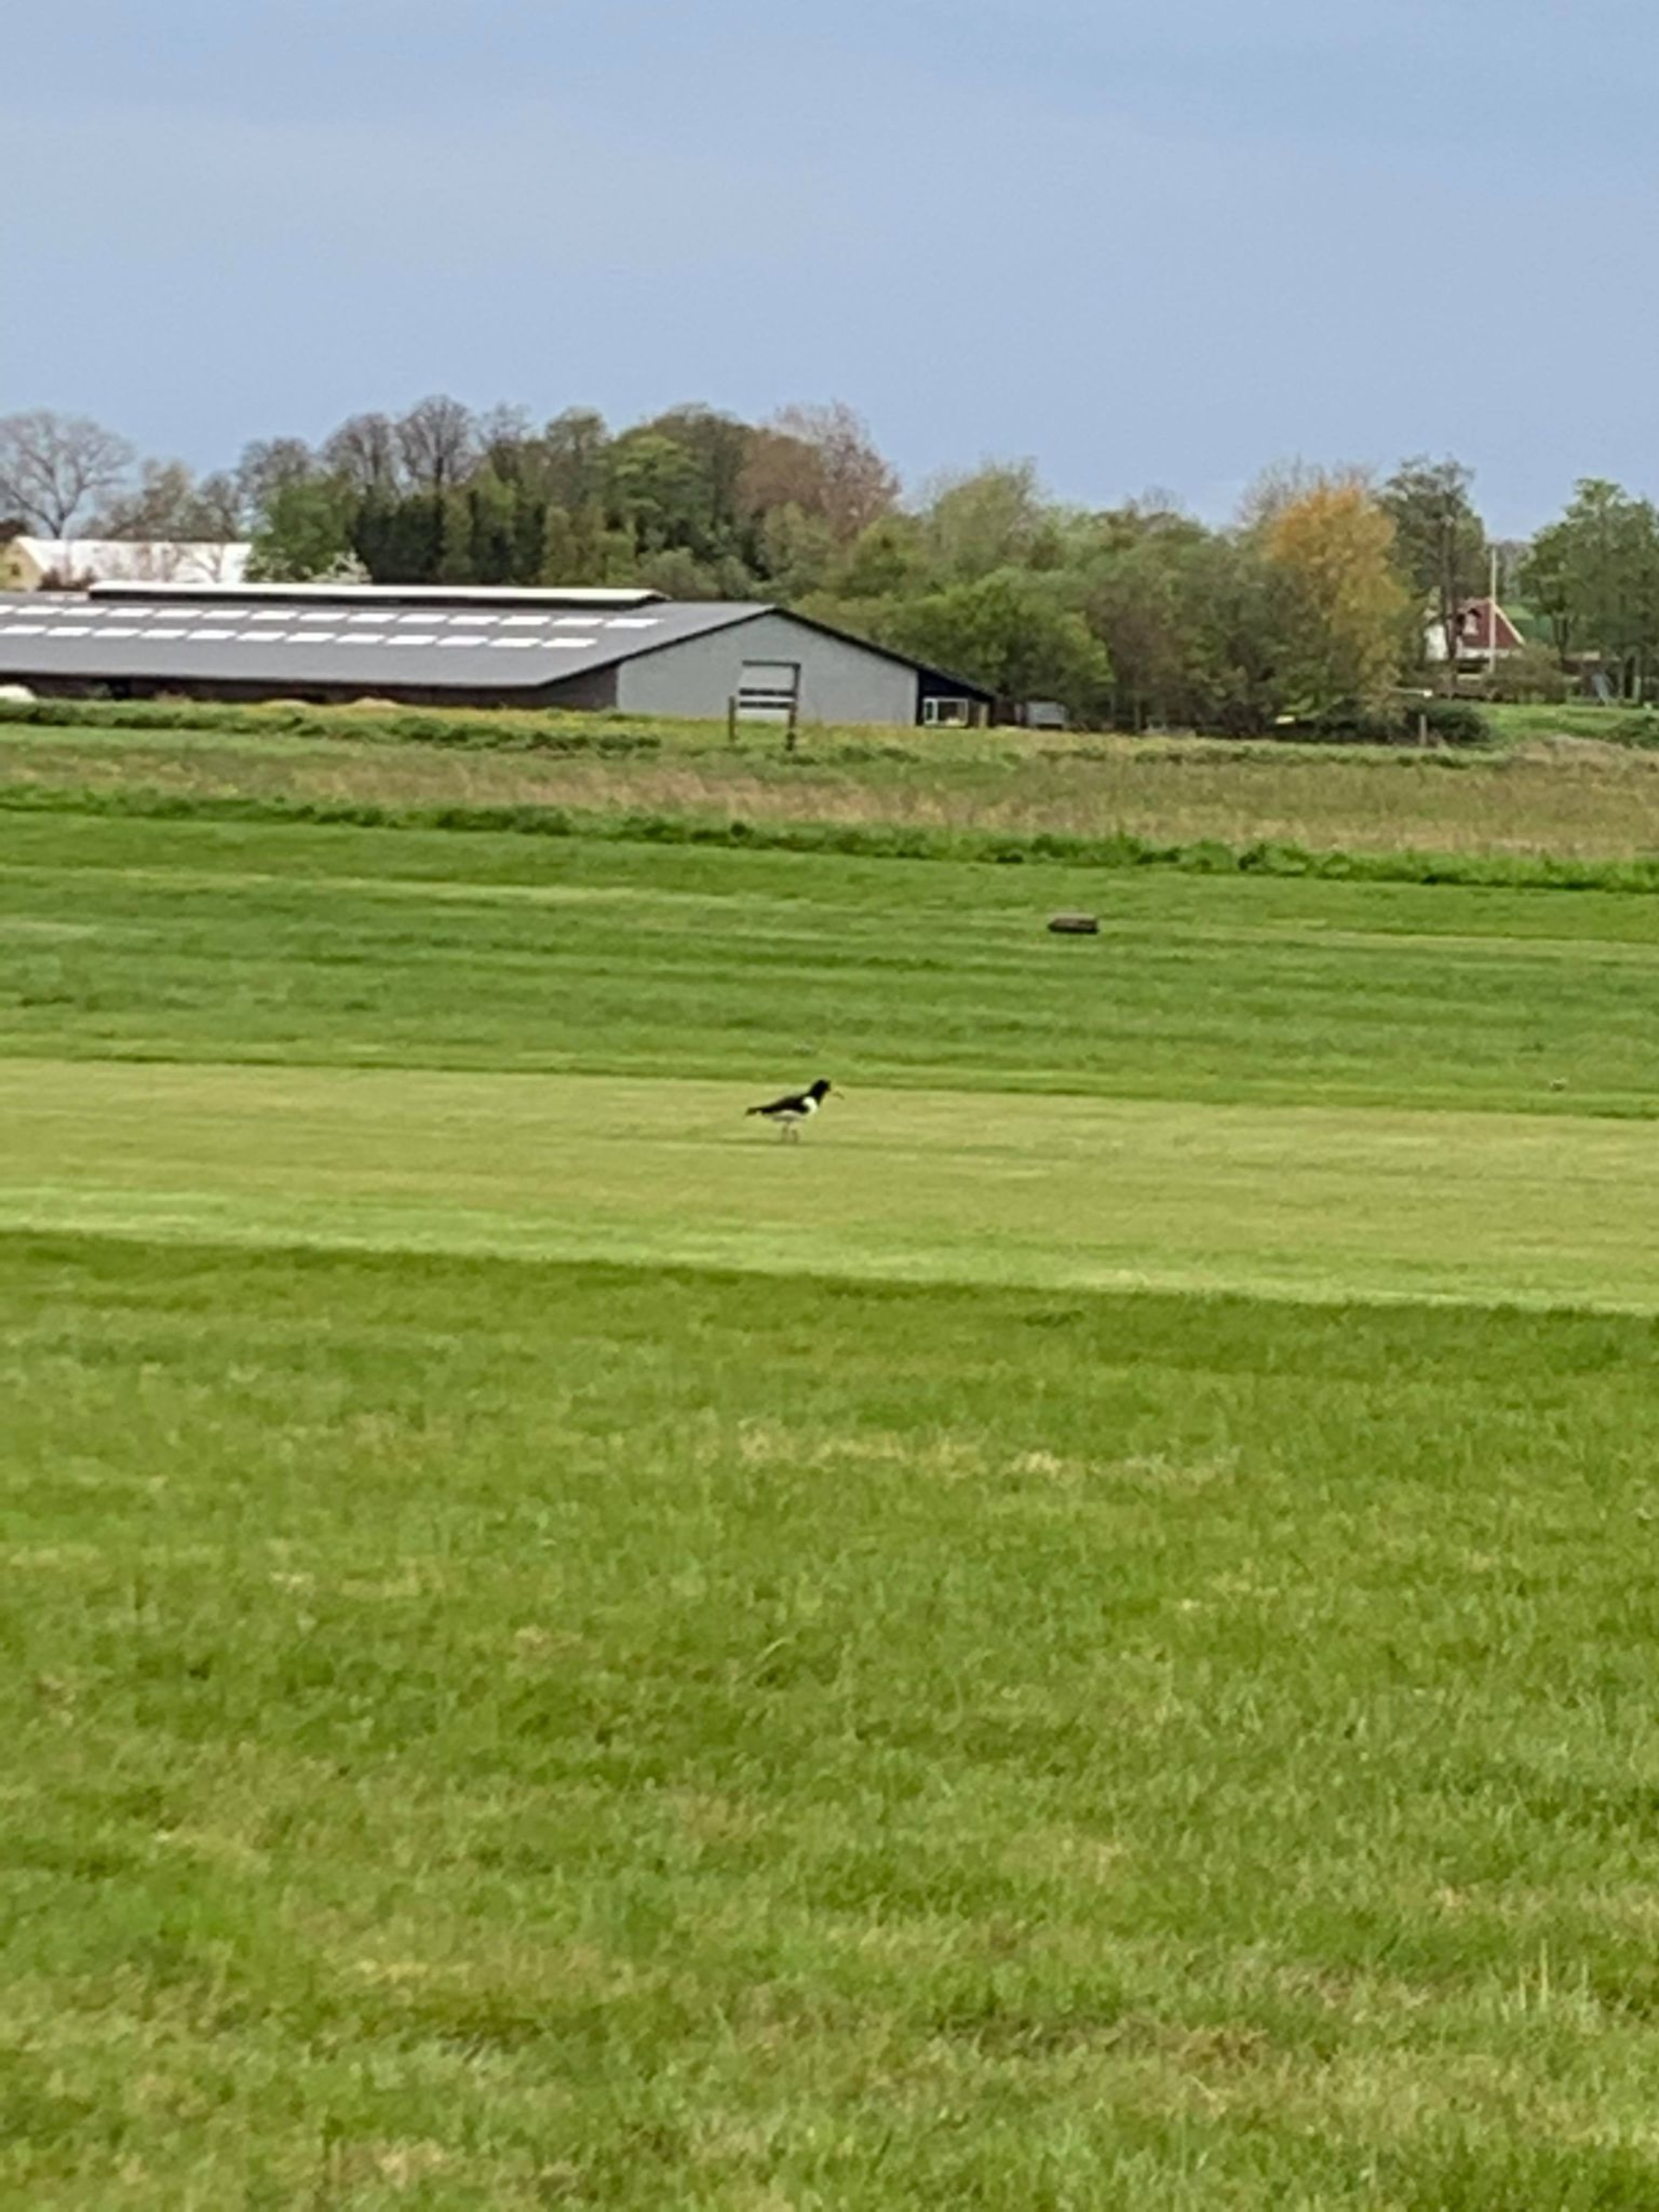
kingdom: Animalia
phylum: Chordata
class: Aves
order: Charadriiformes
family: Haematopodidae
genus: Haematopus
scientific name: Haematopus ostralegus
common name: Strandskade
